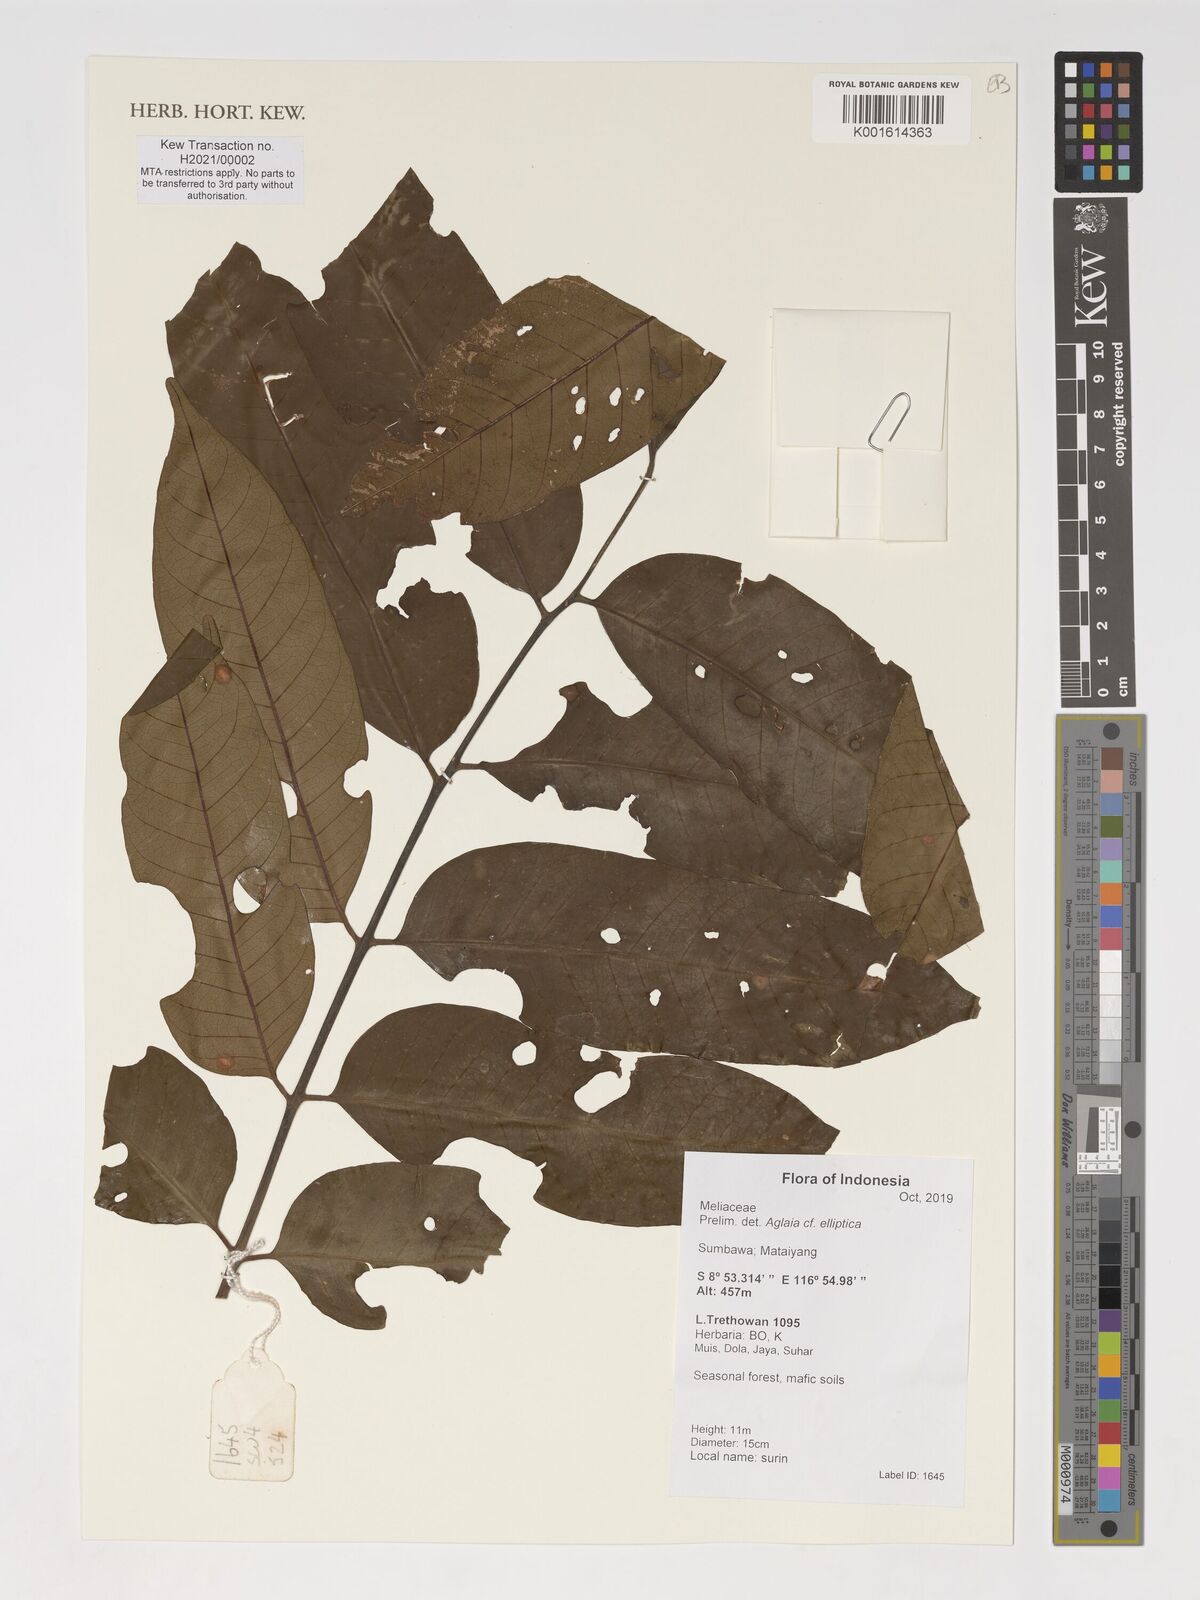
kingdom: Plantae
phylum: Tracheophyta
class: Magnoliopsida
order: Sapindales
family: Meliaceae
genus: Aglaia
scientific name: Aglaia elliptica
